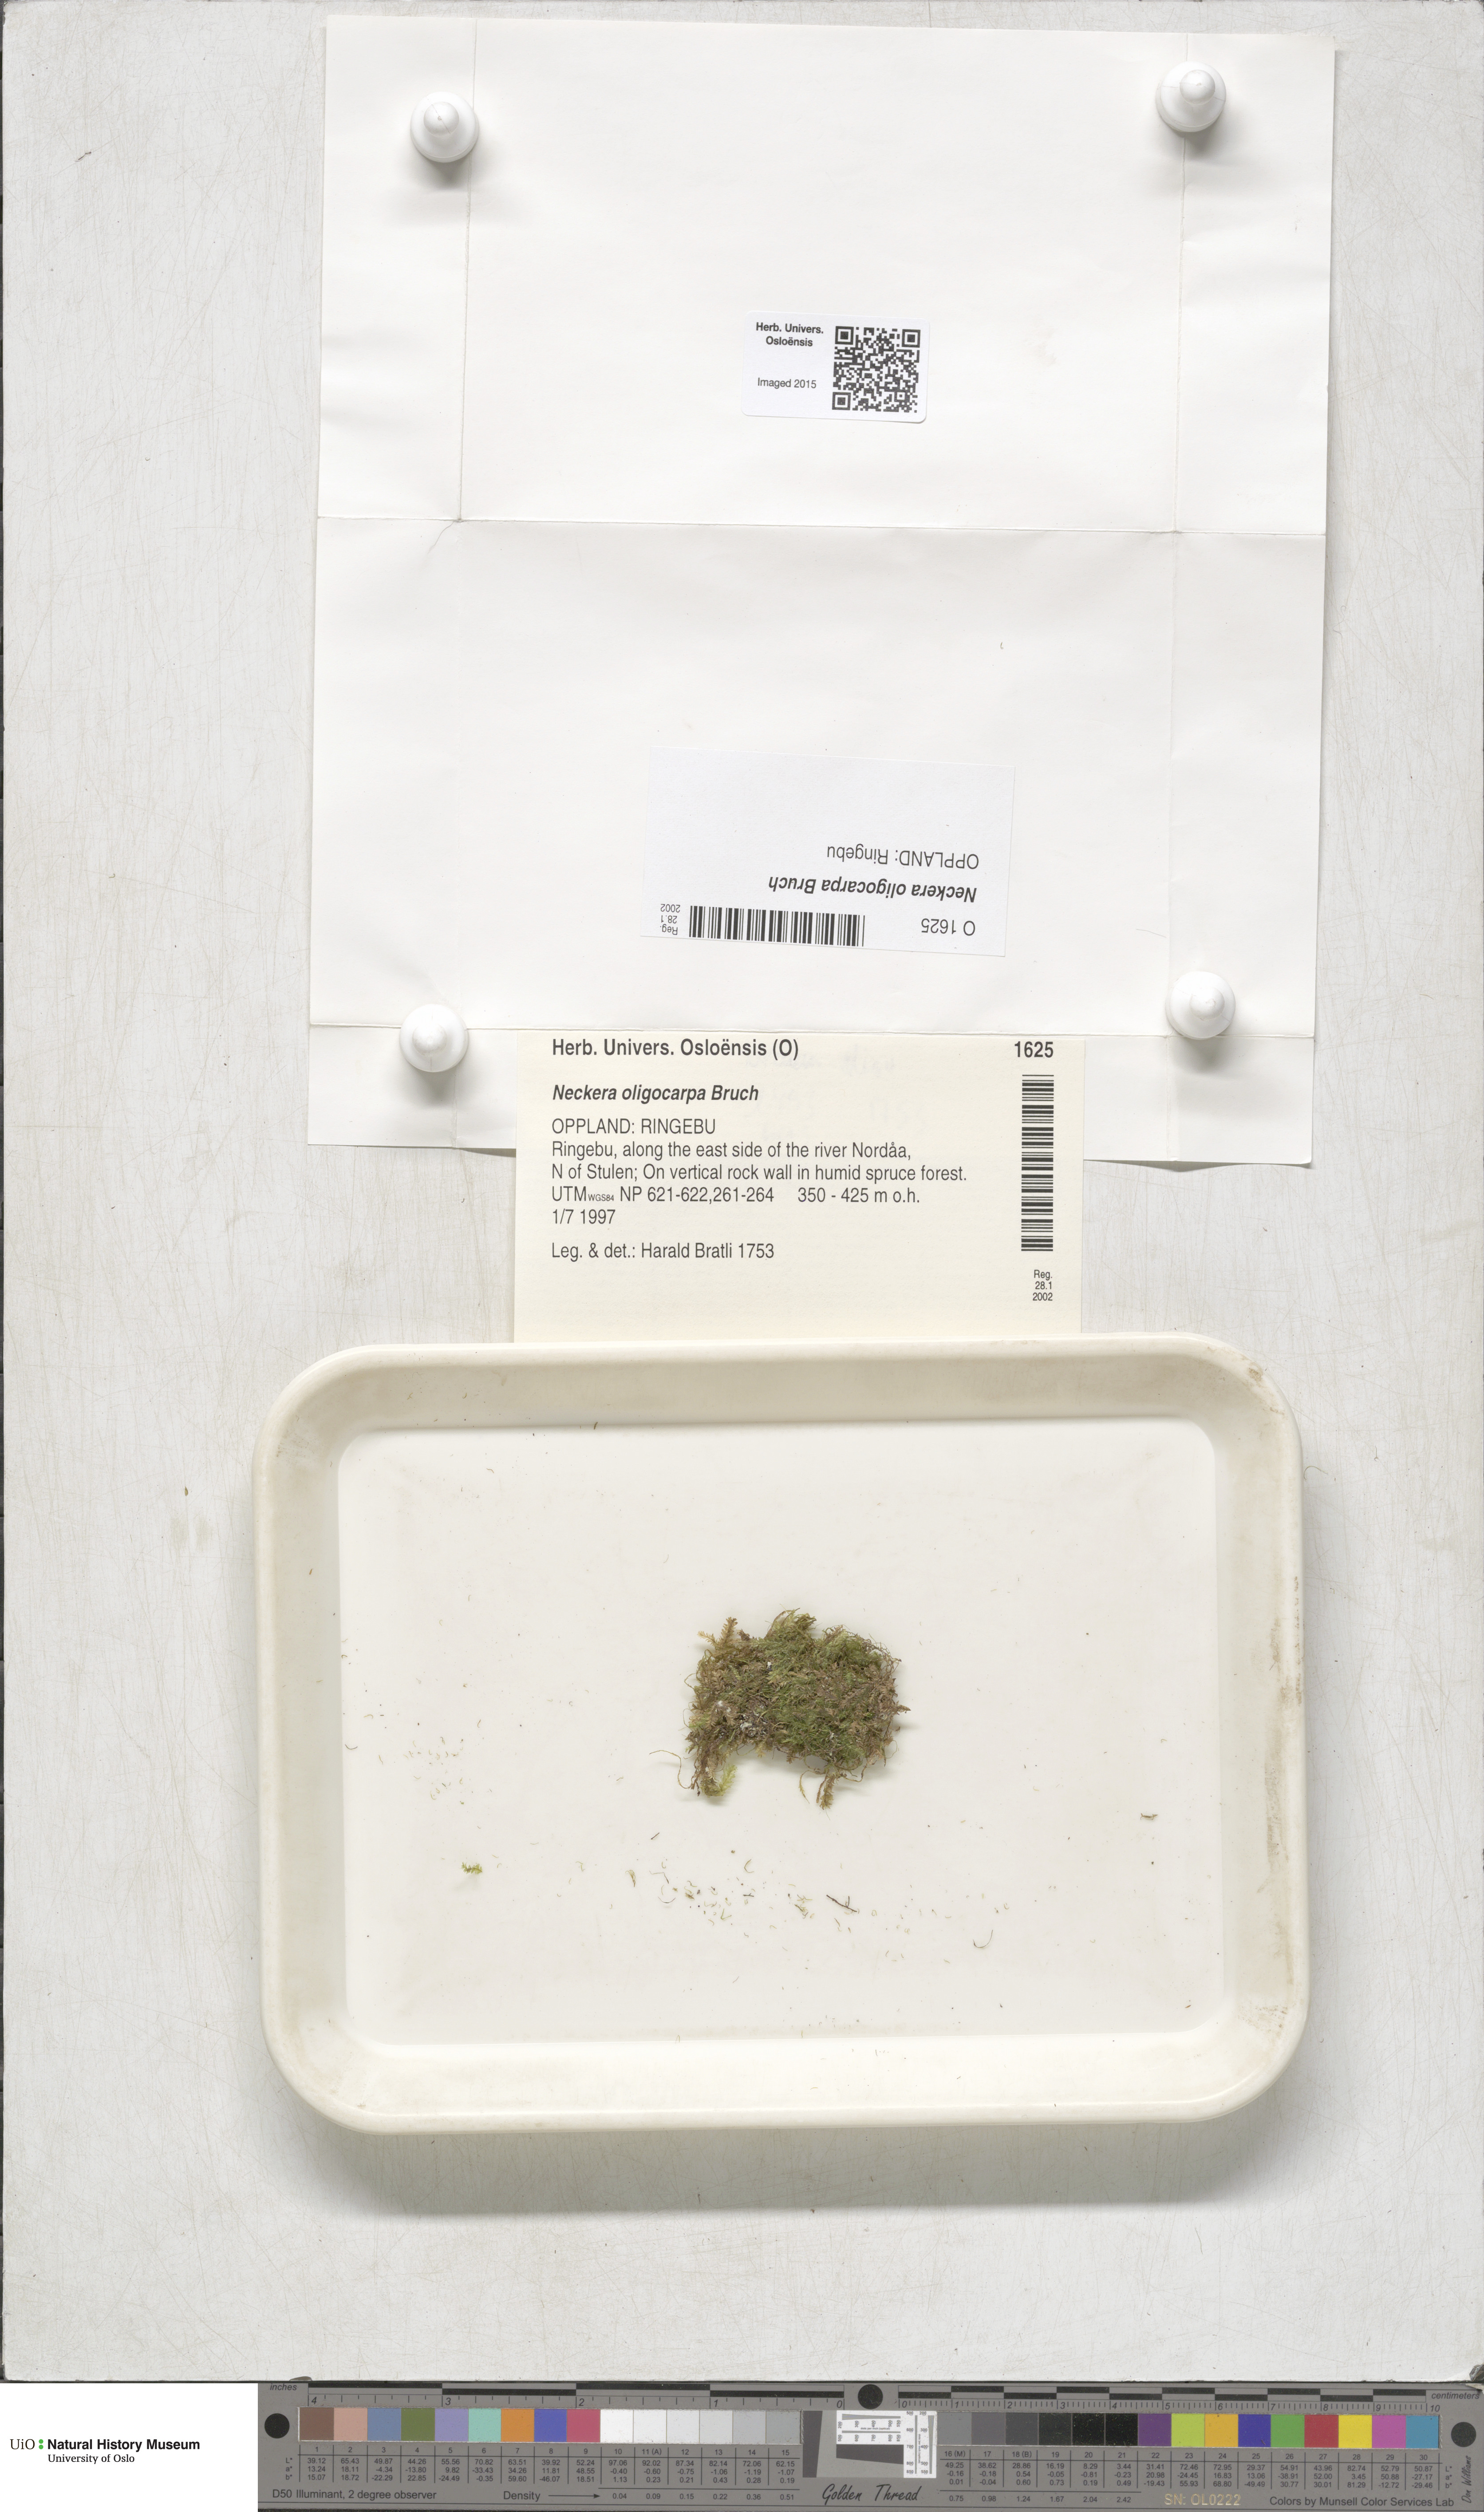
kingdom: Plantae
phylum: Bryophyta
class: Bryopsida
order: Hypnales
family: Neckeraceae
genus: Neckera
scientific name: Neckera oligocarpa
